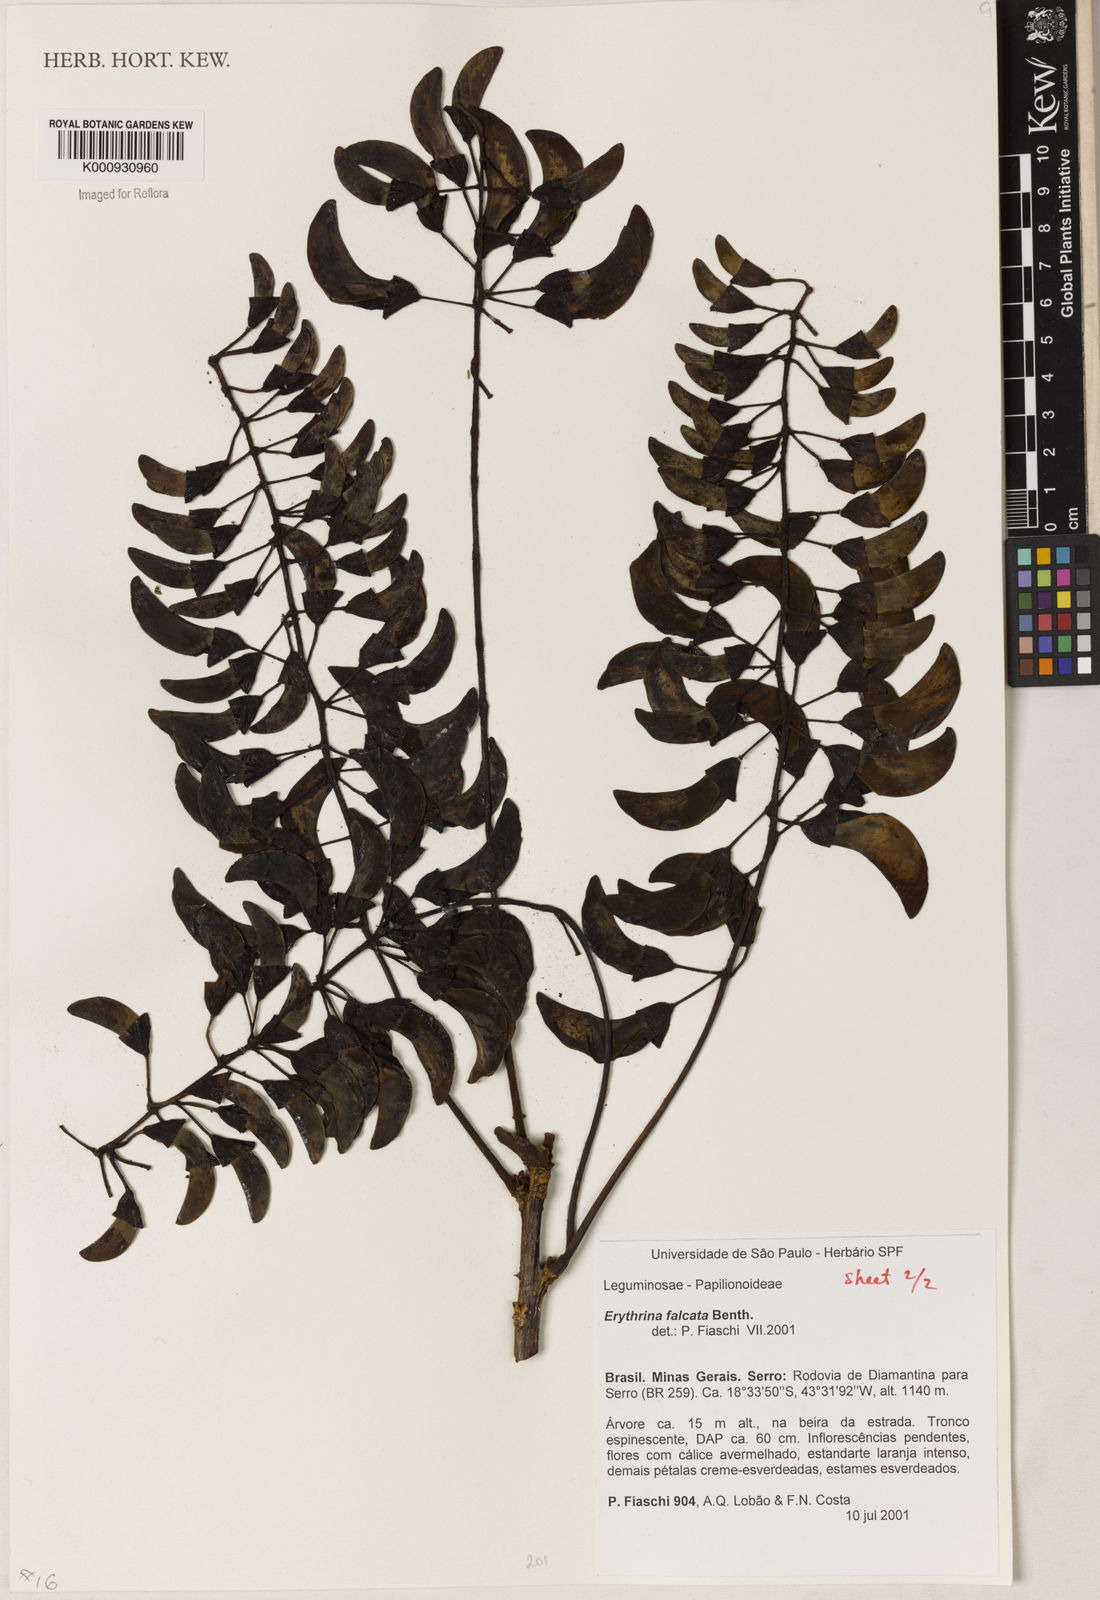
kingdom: Plantae
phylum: Tracheophyta
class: Magnoliopsida
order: Fabales
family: Fabaceae
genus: Erythrina
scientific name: Erythrina falcata
